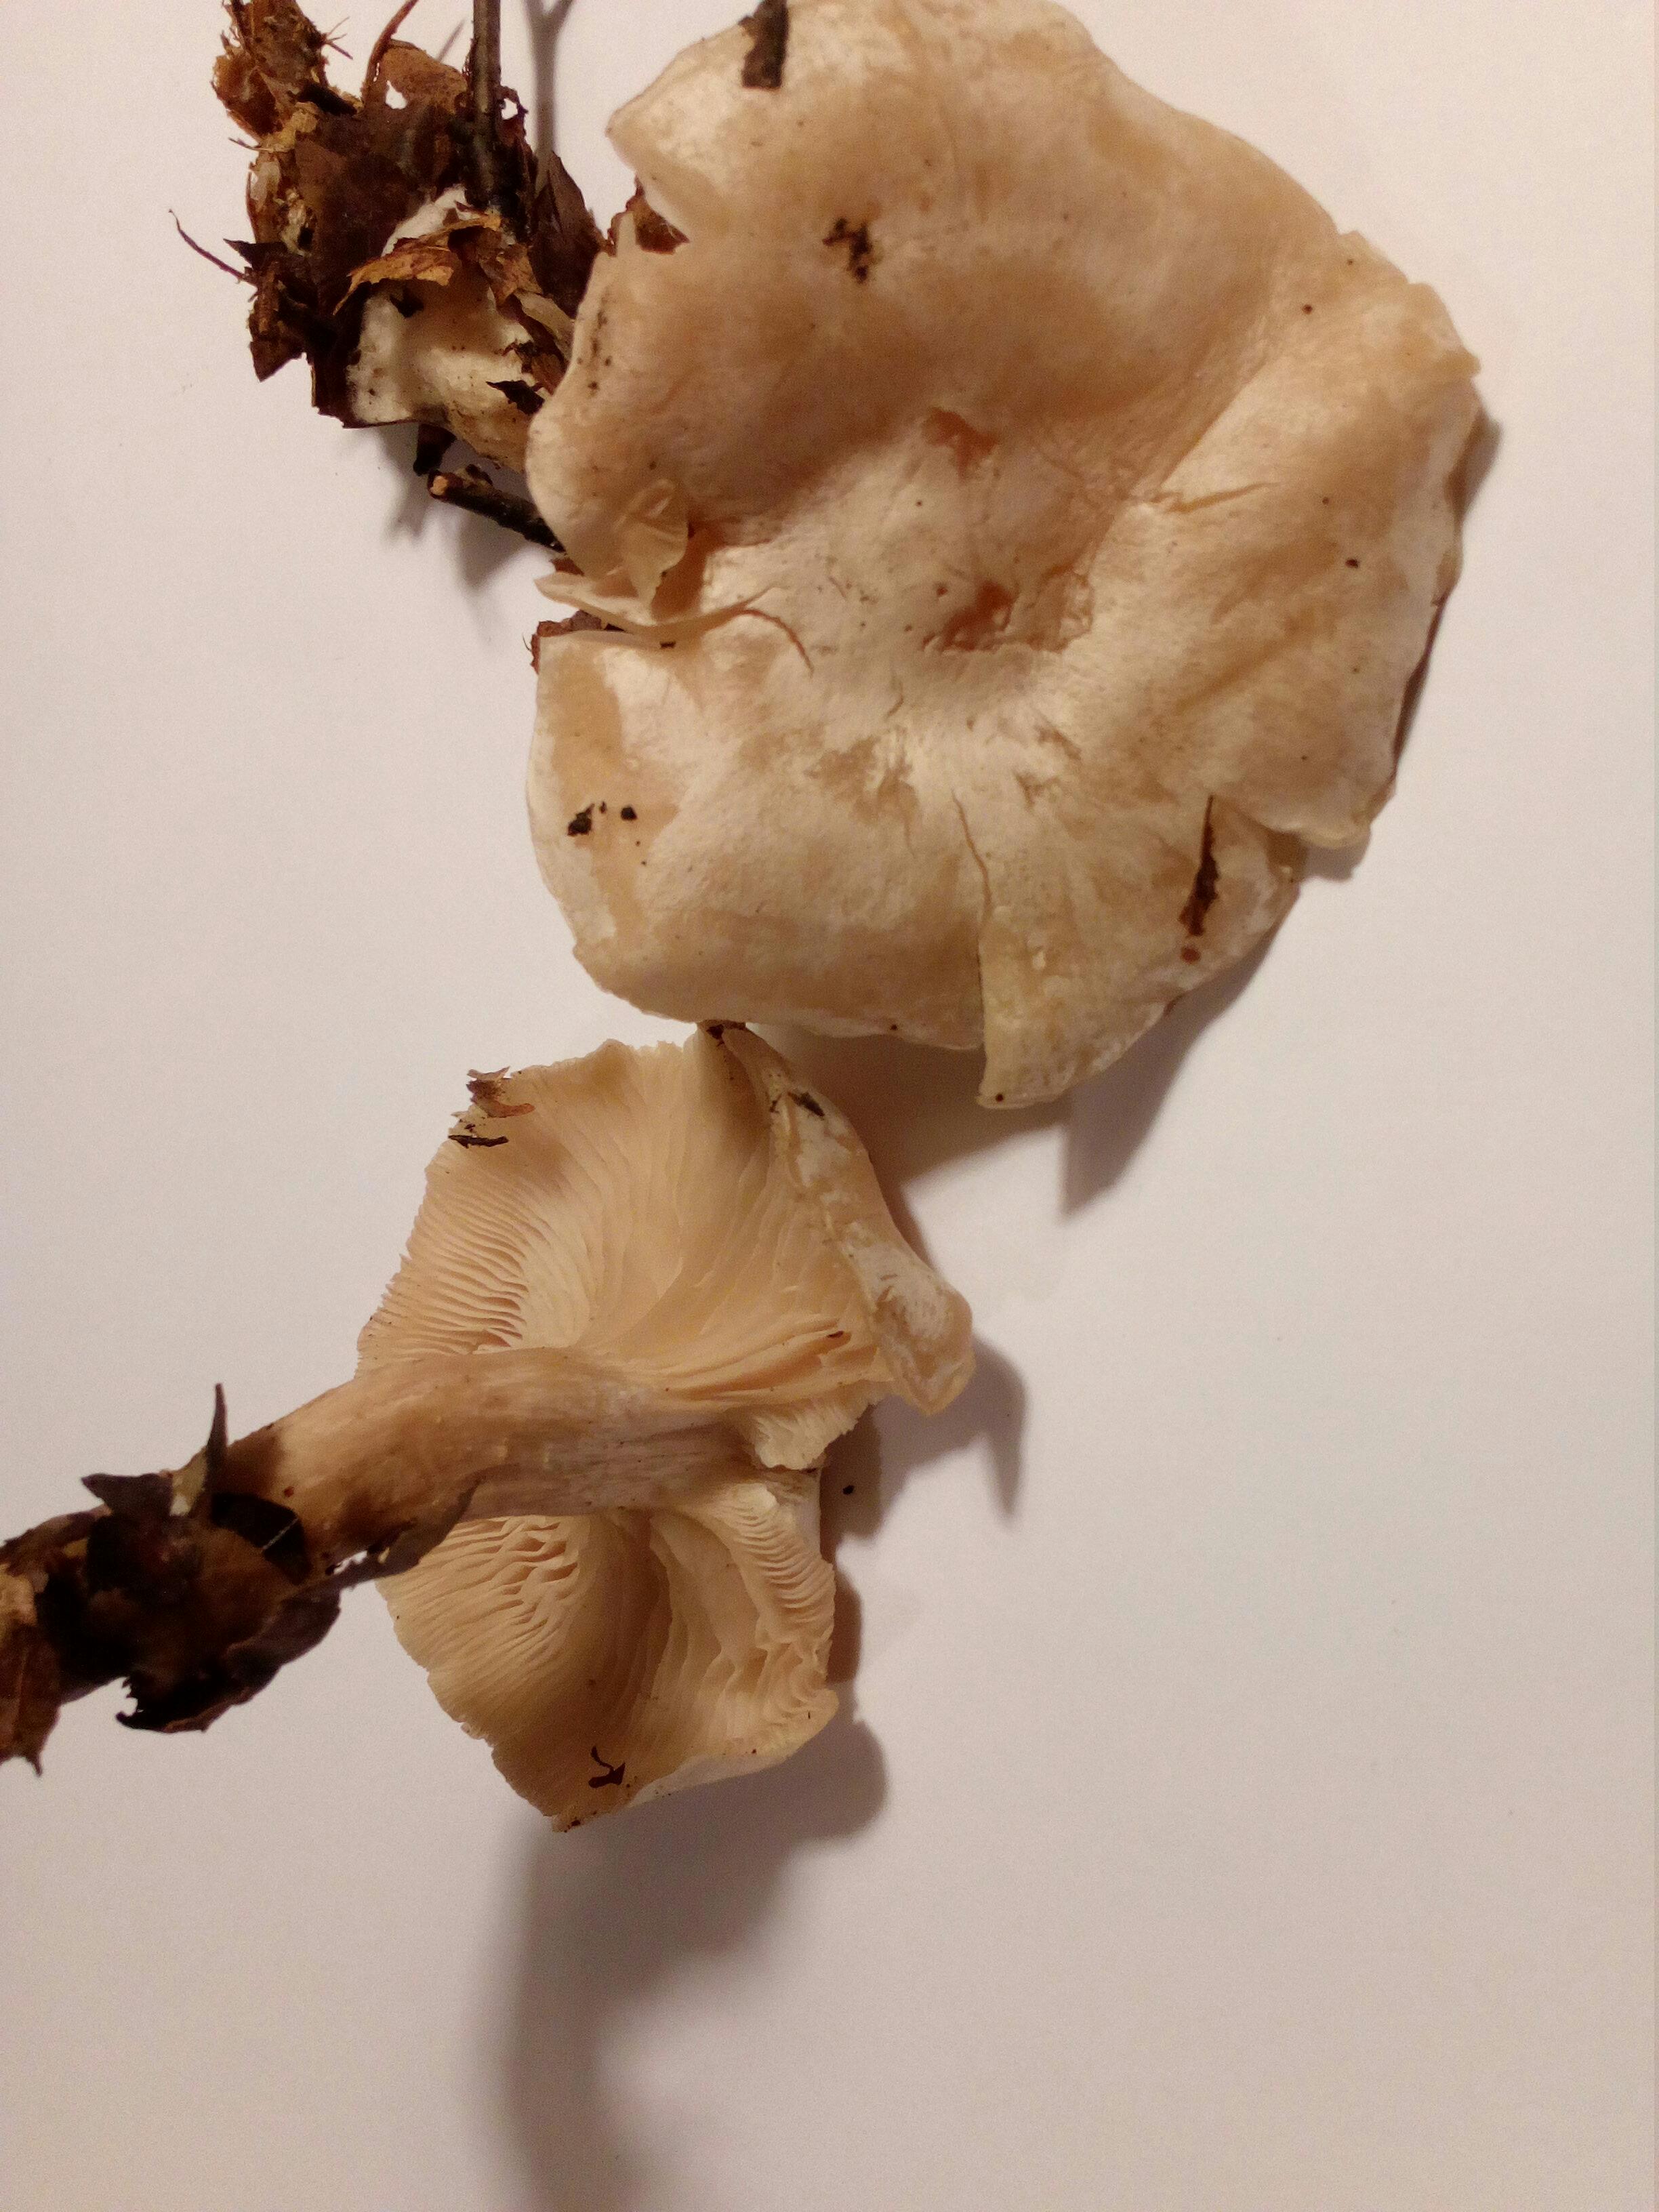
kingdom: Fungi
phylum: Basidiomycota
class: Agaricomycetes
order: Agaricales
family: Tricholomataceae
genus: Clitocybe
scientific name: Clitocybe phyllophila
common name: løv-tragthat
